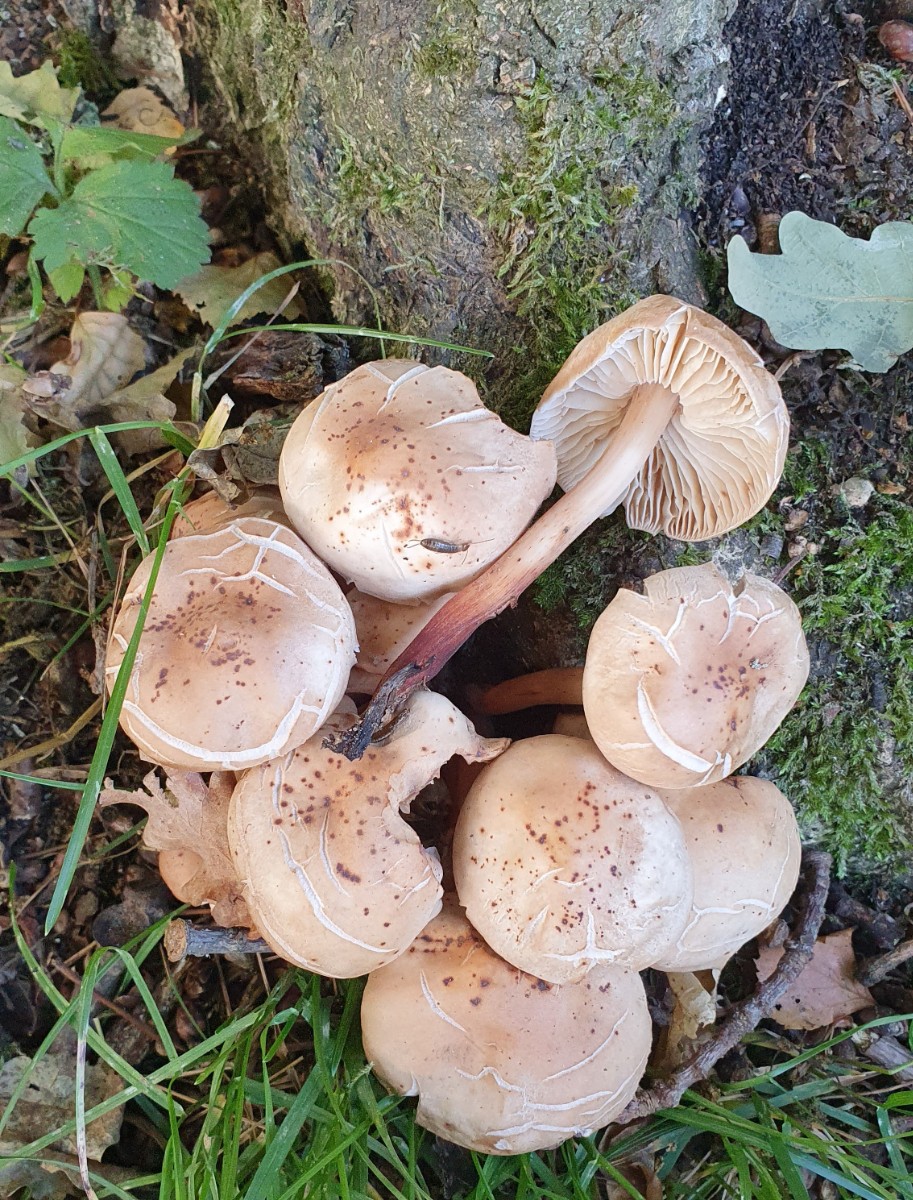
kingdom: Fungi
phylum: Basidiomycota
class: Agaricomycetes
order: Agaricales
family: Omphalotaceae
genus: Gymnopus
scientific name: Gymnopus fusipes
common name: tenstokket fladhat
